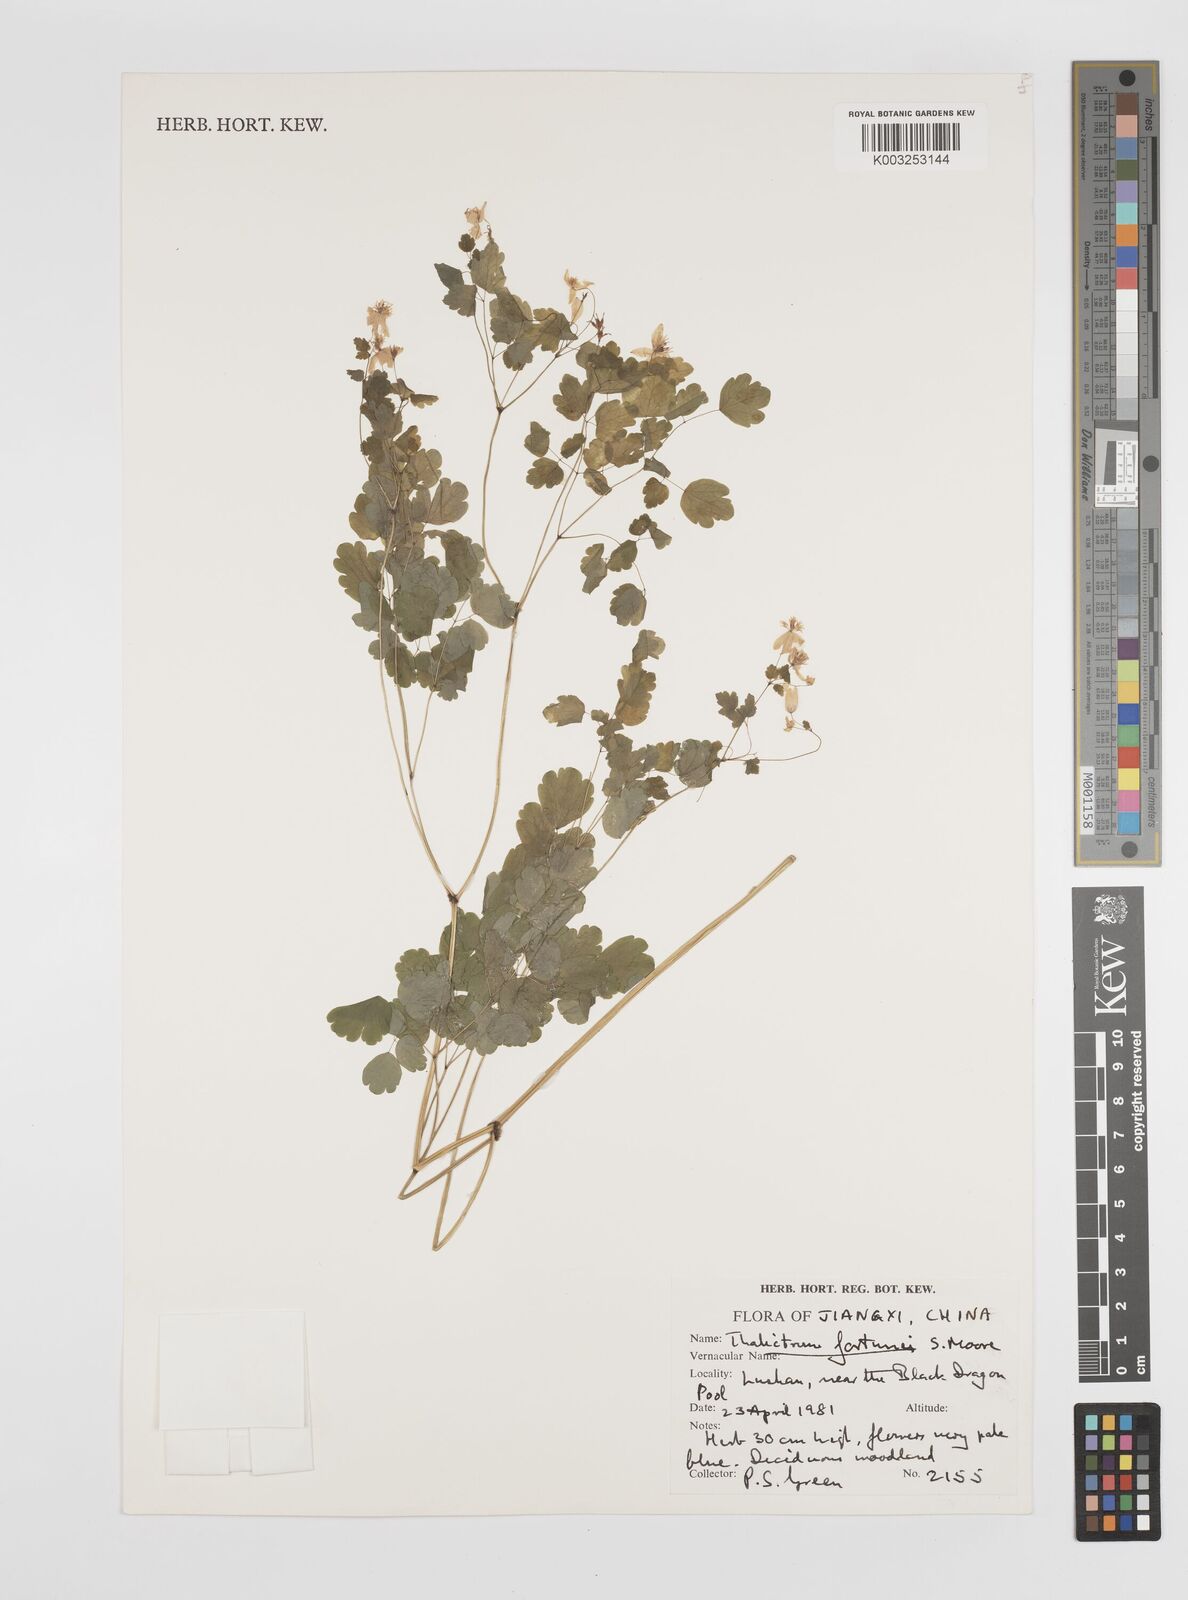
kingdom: Plantae
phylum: Tracheophyta
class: Magnoliopsida
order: Ranunculales
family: Ranunculaceae
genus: Thalictrum
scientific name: Thalictrum fortunei
